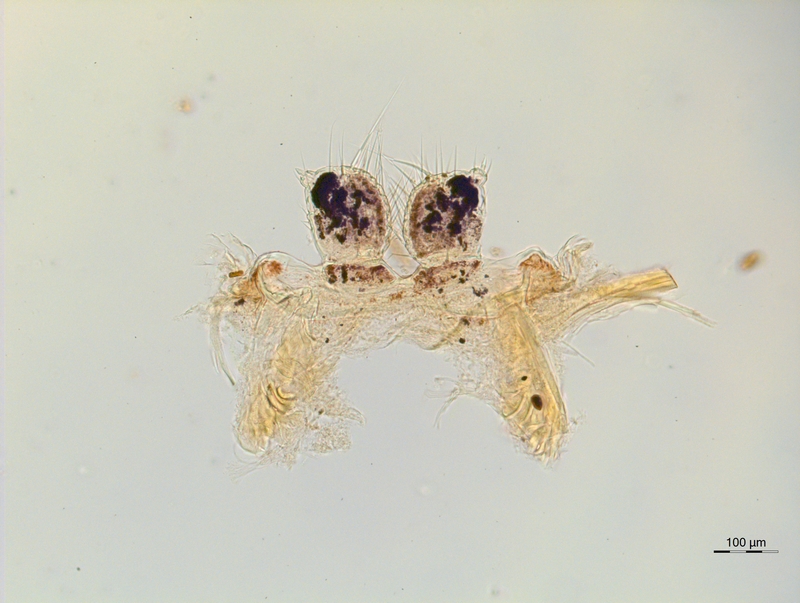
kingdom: Animalia
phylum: Arthropoda
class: Diplopoda
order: Chordeumatida
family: Chordeumatidae
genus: Mycogona
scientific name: Mycogona germanica
